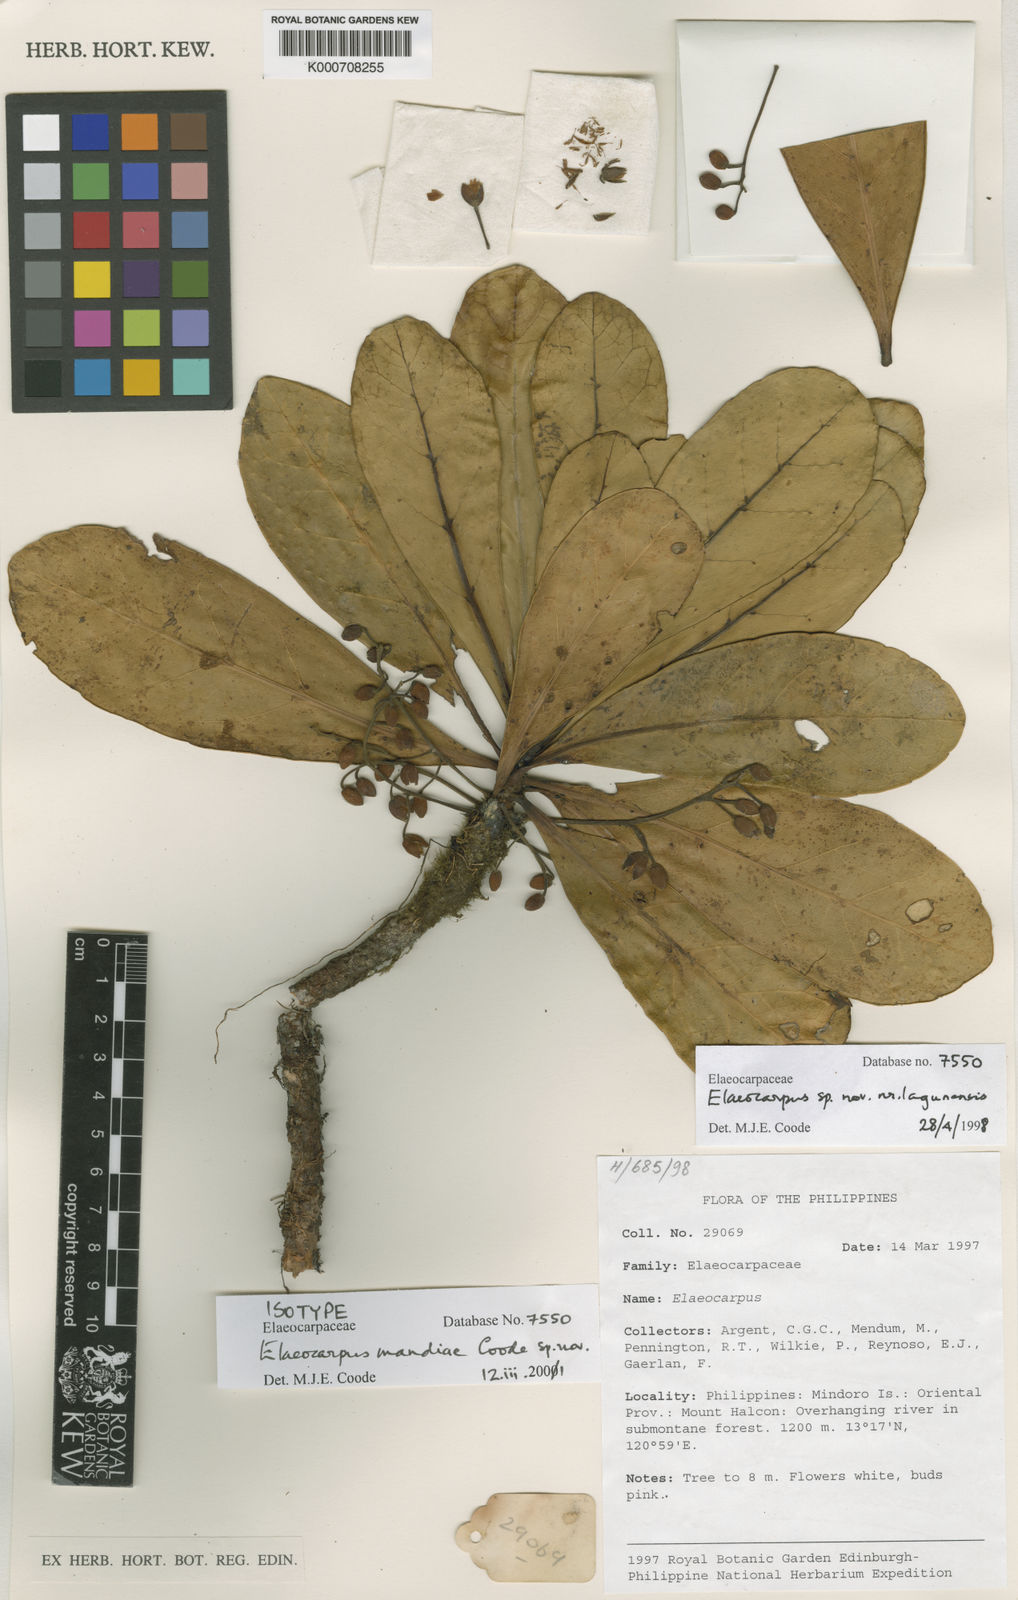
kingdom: Plantae
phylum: Tracheophyta
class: Magnoliopsida
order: Oxalidales
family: Elaeocarpaceae
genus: Elaeocarpus
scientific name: Elaeocarpus mandiae
